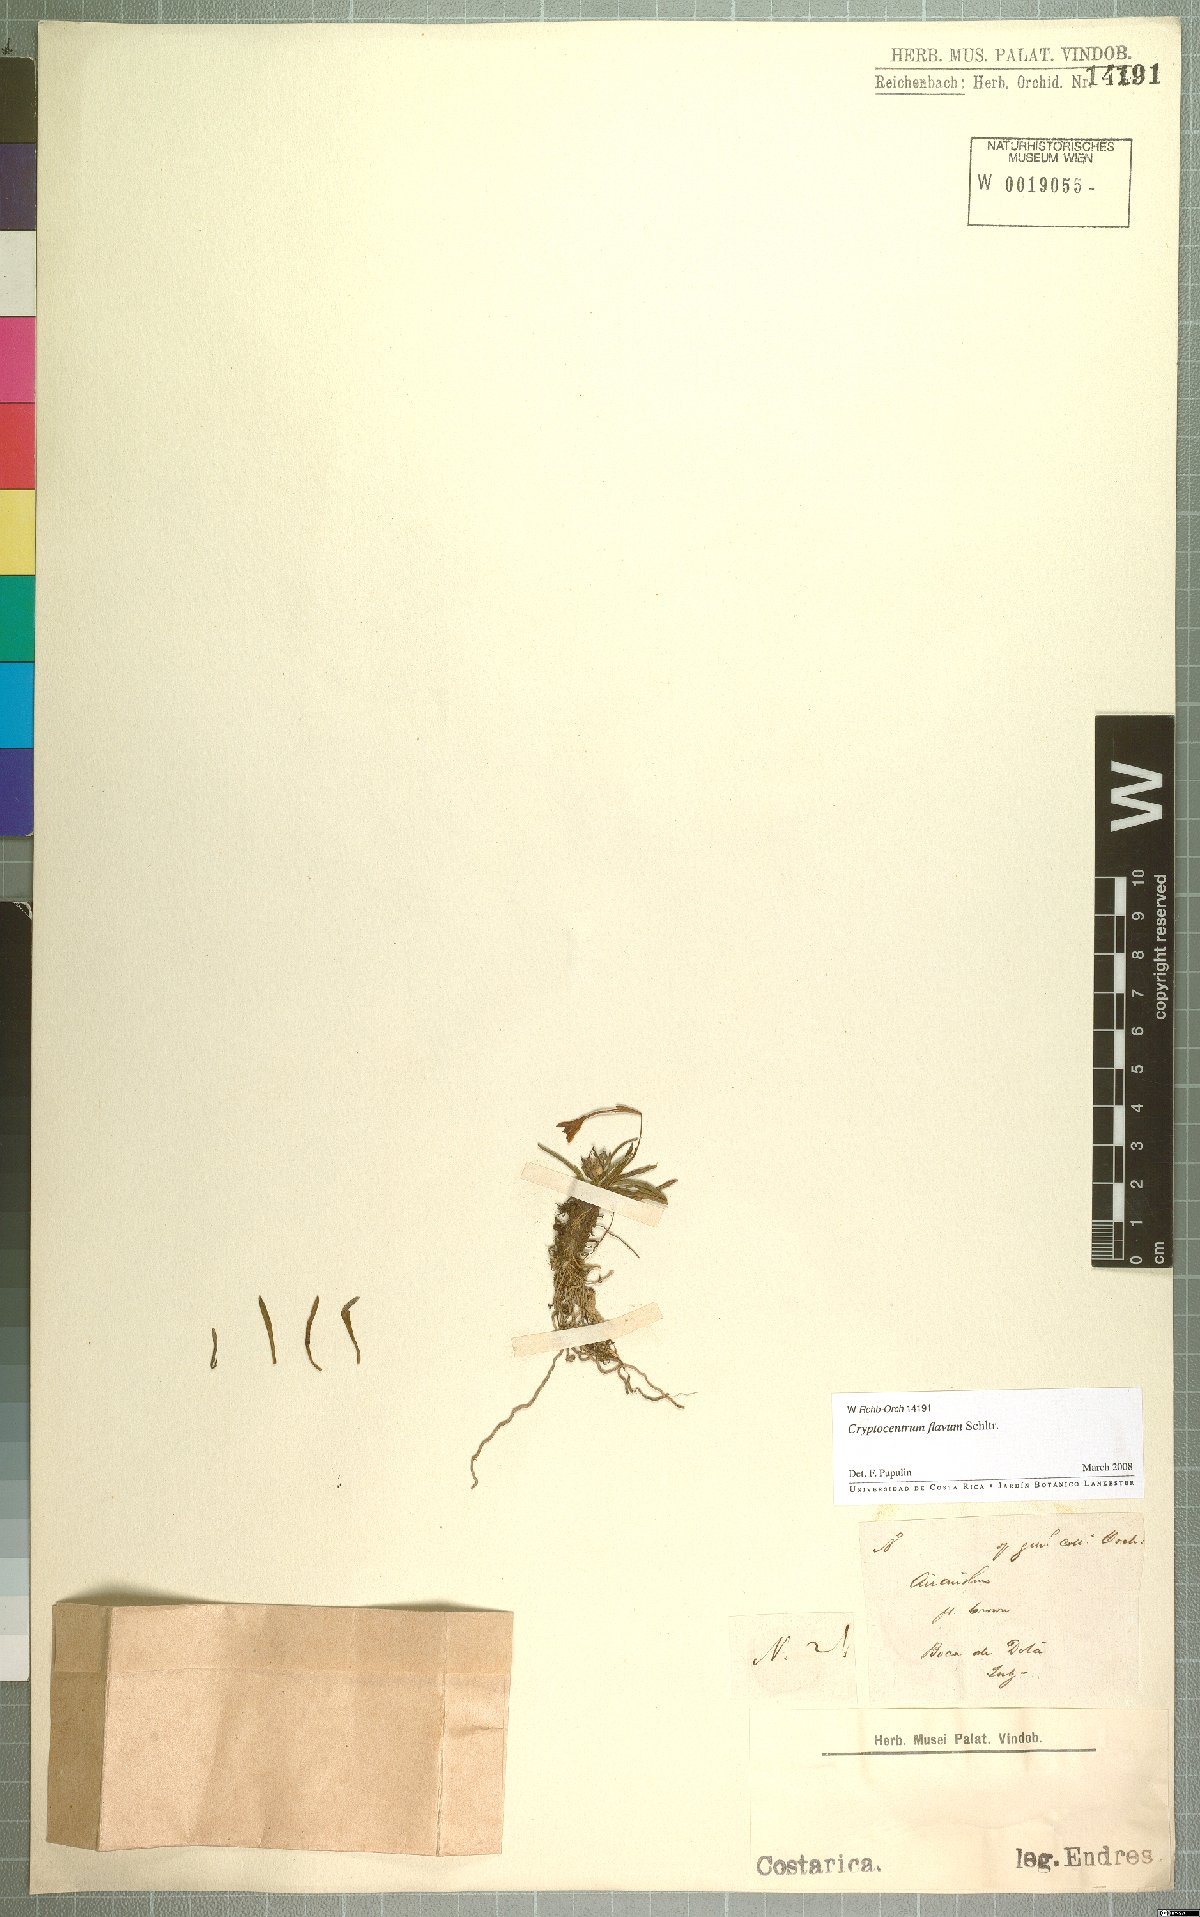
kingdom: Plantae
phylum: Tracheophyta
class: Liliopsida
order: Asparagales
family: Orchidaceae
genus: Maxillaria
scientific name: Maxillaria standleyi
